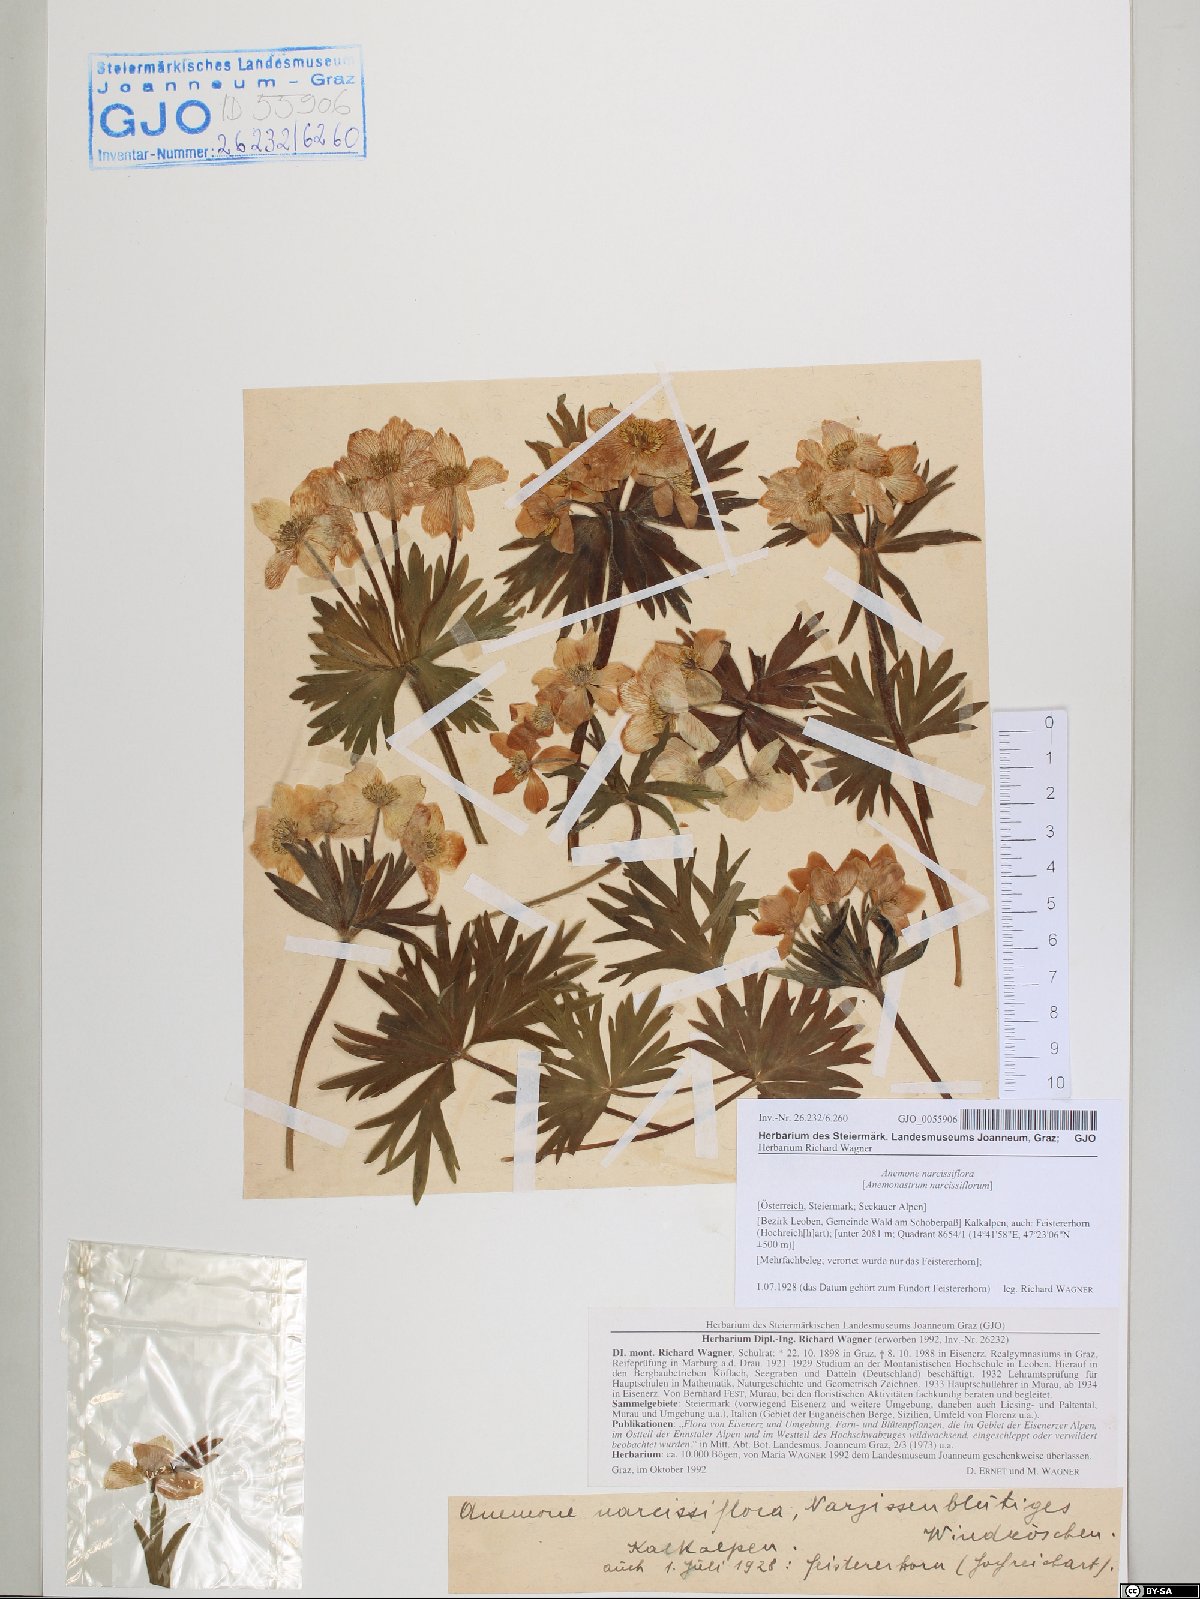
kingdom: Plantae
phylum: Tracheophyta
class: Magnoliopsida
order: Ranunculales
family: Ranunculaceae
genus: Anemonastrum
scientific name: Anemonastrum narcissiflorum
